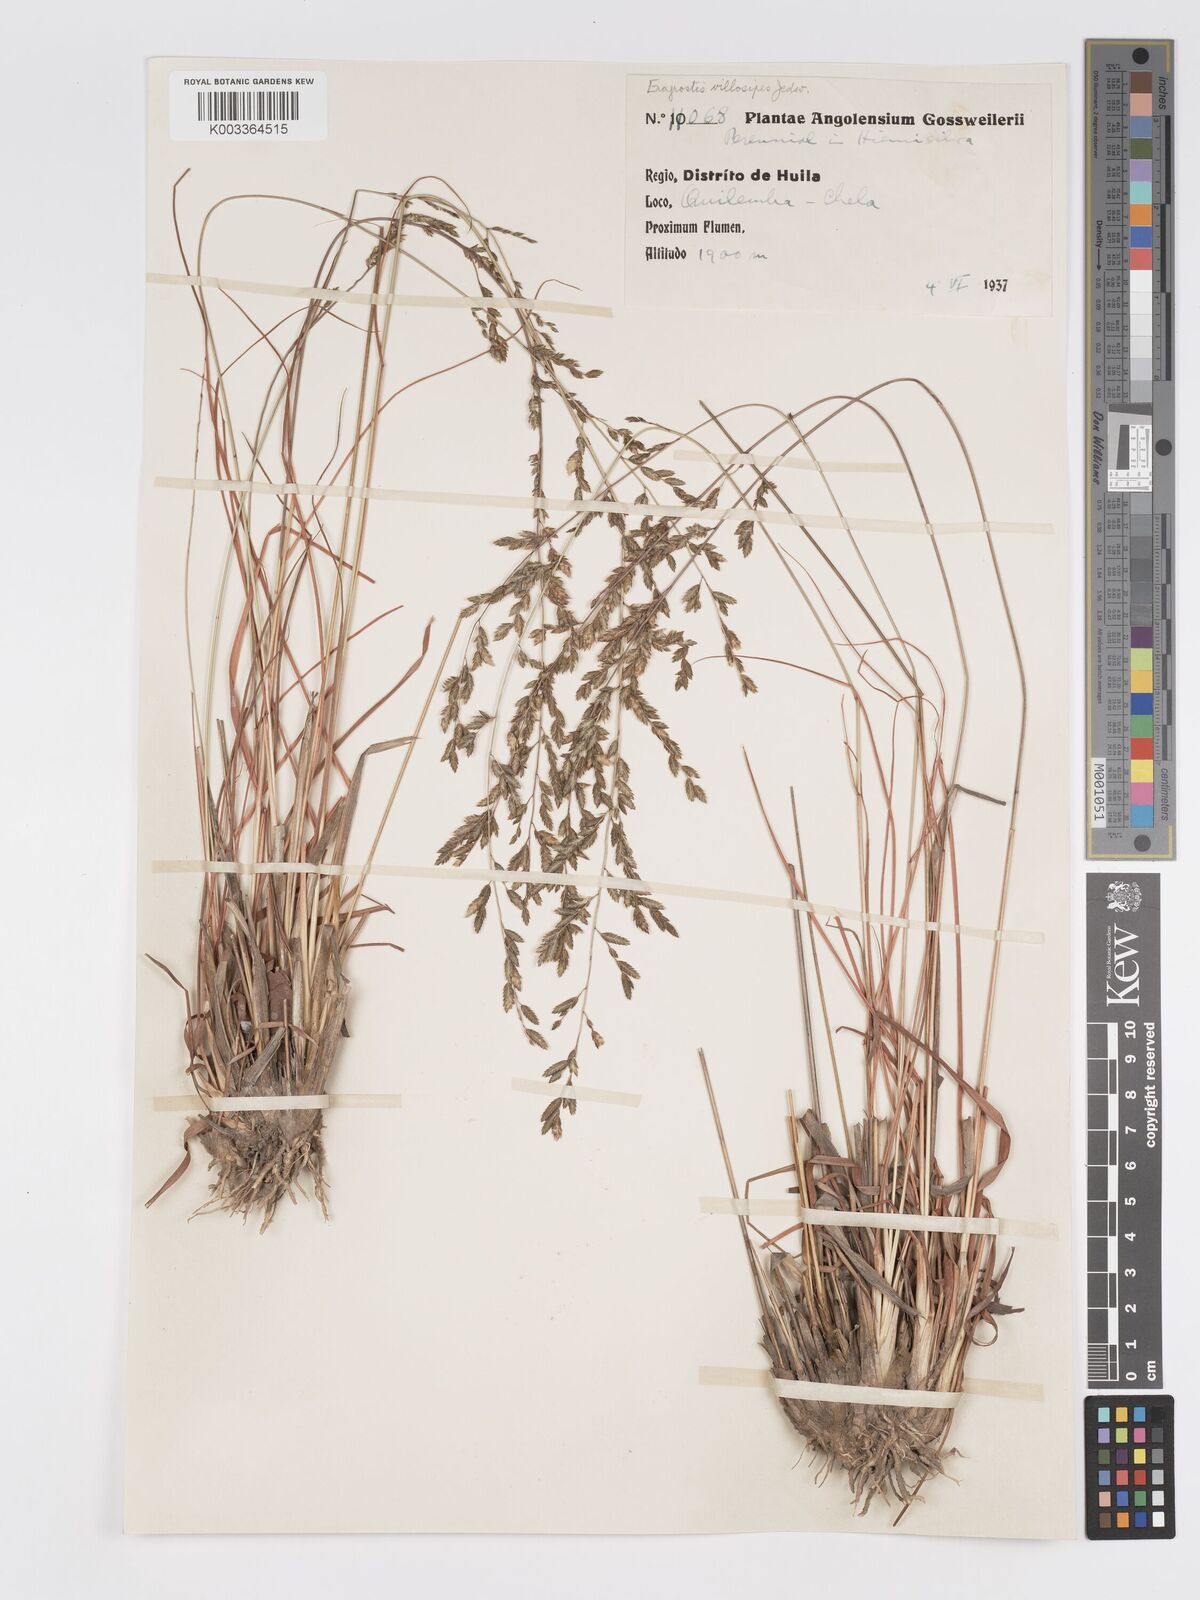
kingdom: Plantae
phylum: Tracheophyta
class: Liliopsida
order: Poales
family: Poaceae
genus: Eragrostis
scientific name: Eragrostis sclerantha
